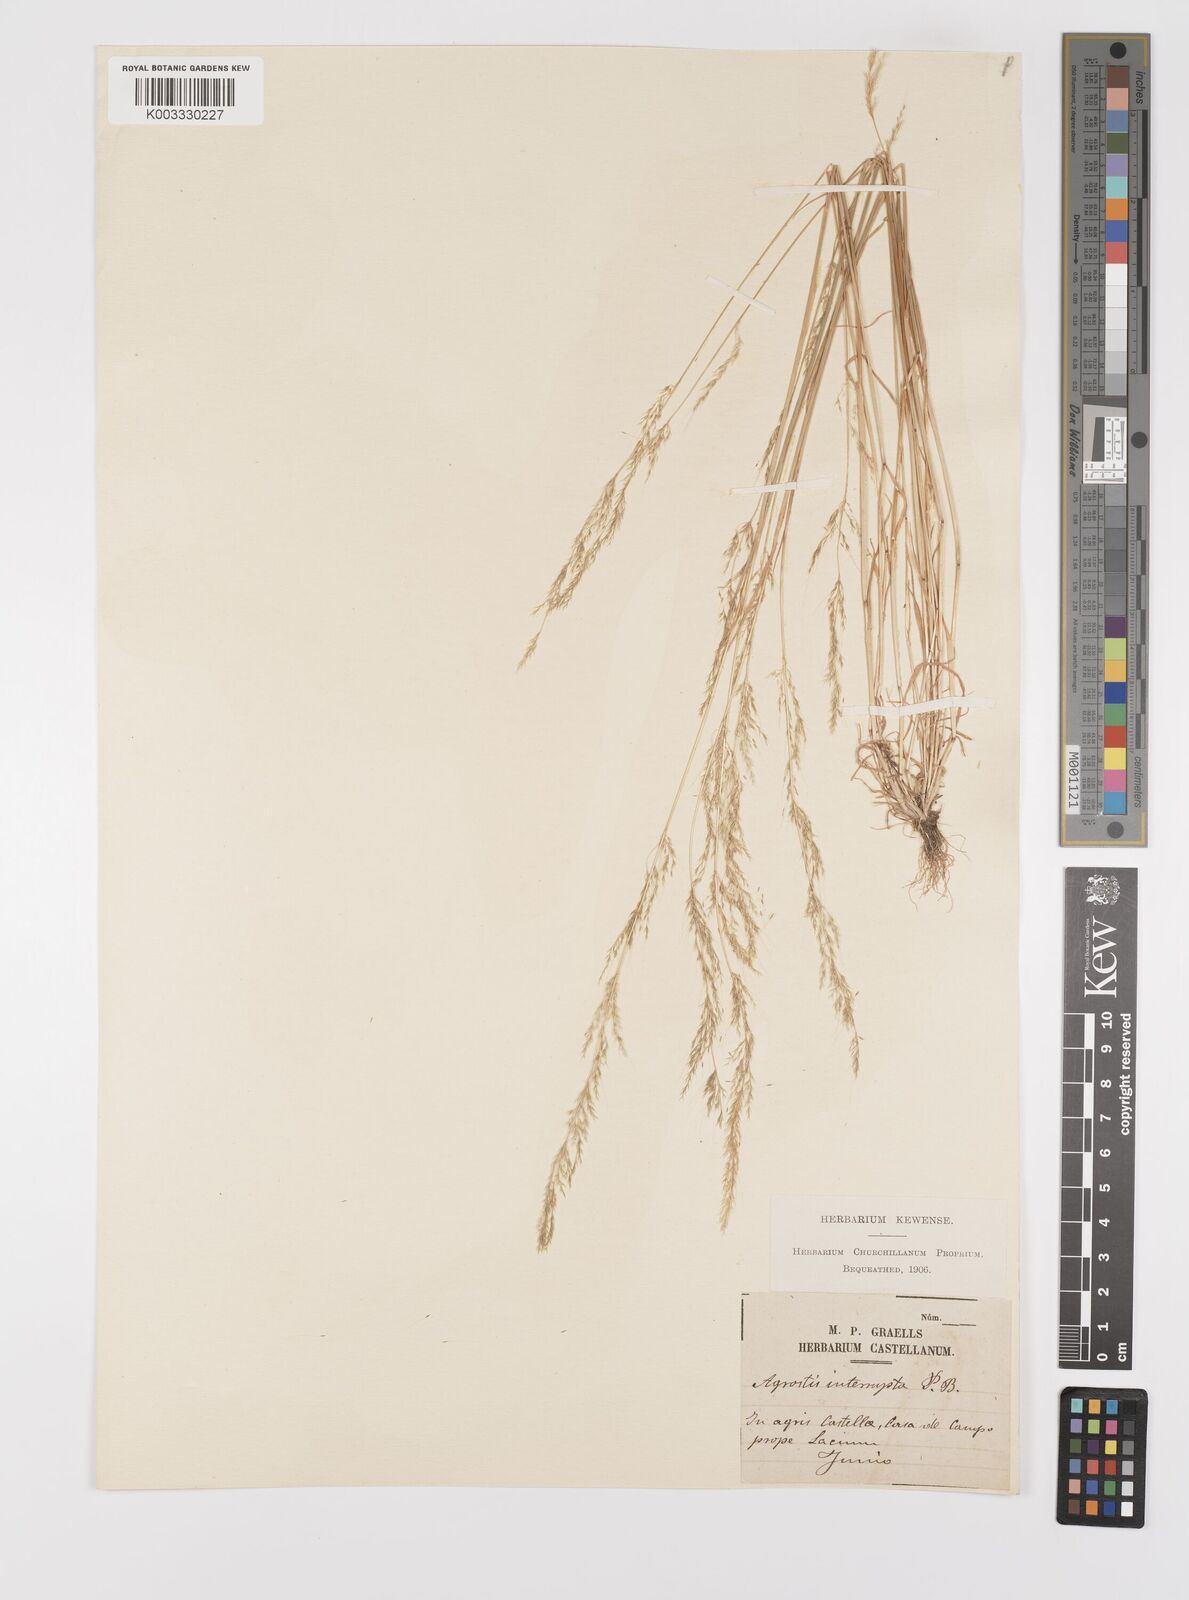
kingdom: Plantae
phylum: Tracheophyta
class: Liliopsida
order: Poales
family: Poaceae
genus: Apera
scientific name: Apera interrupta
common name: Dense silky-bent
